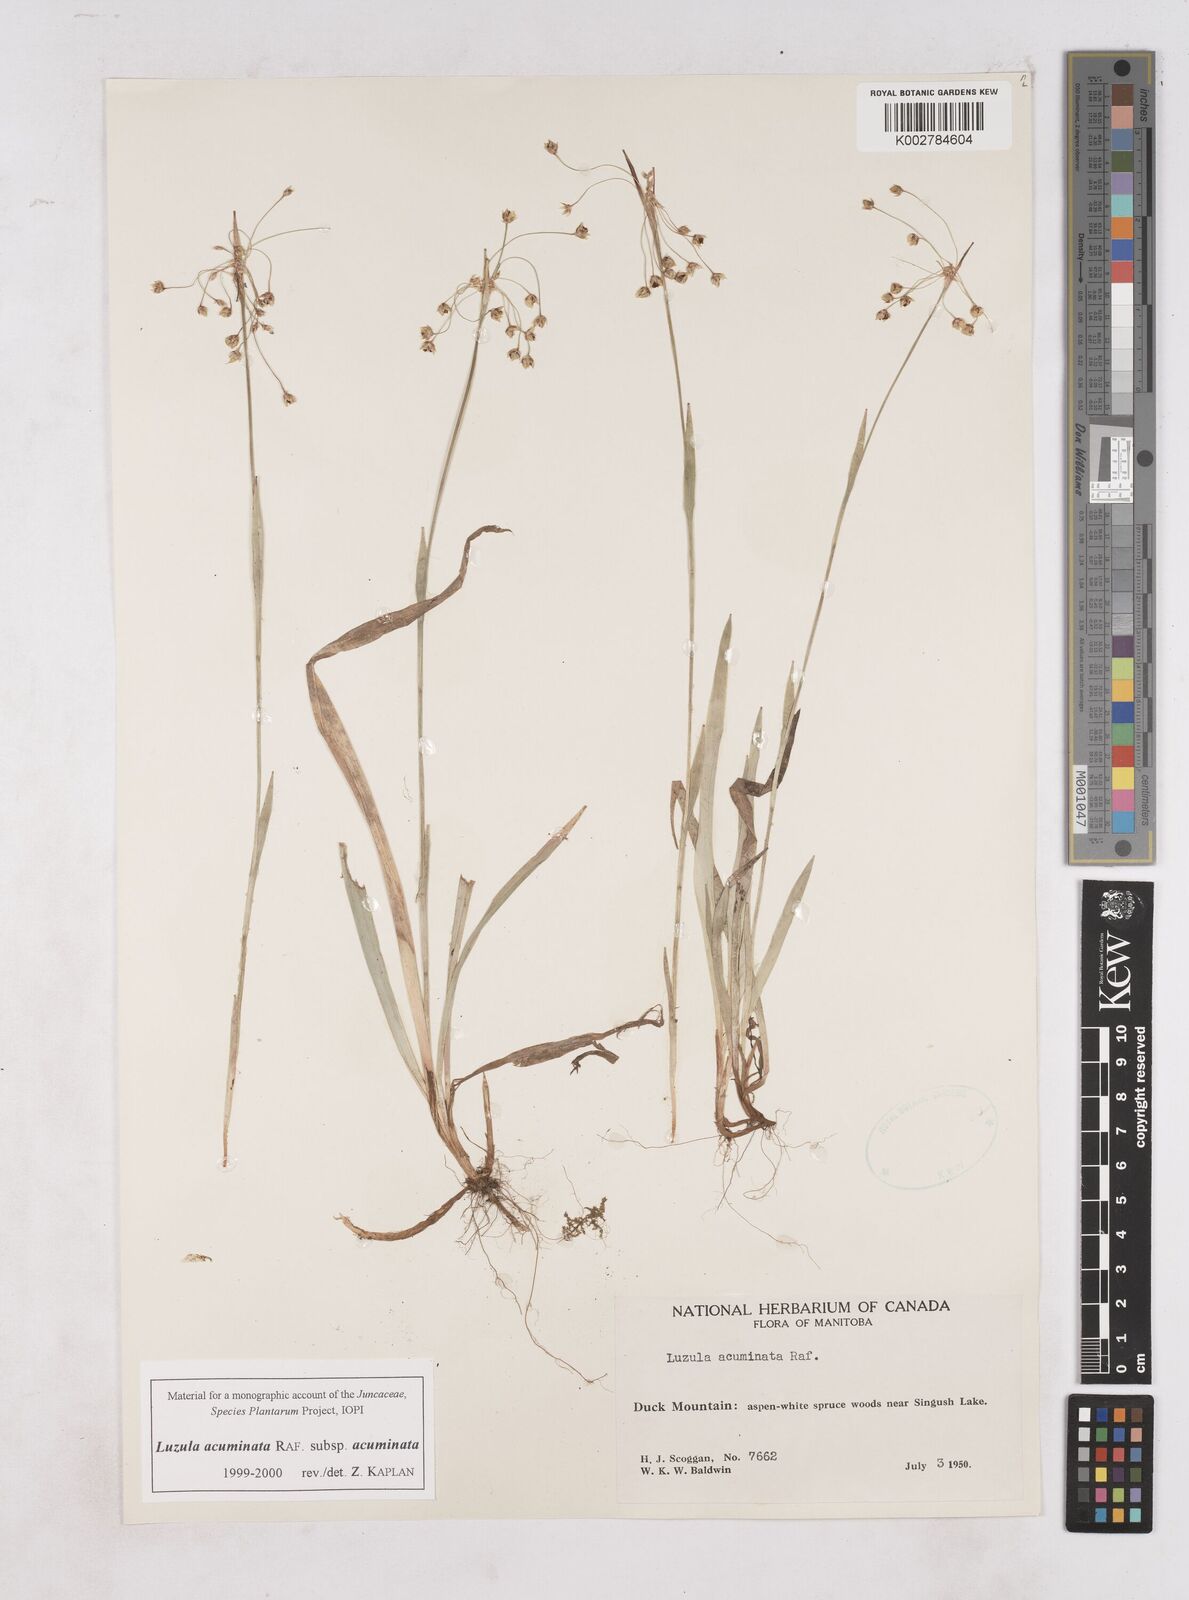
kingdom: Plantae
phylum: Tracheophyta
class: Liliopsida
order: Poales
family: Juncaceae
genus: Luzula
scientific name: Luzula acuminata
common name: Hairy woodrush
